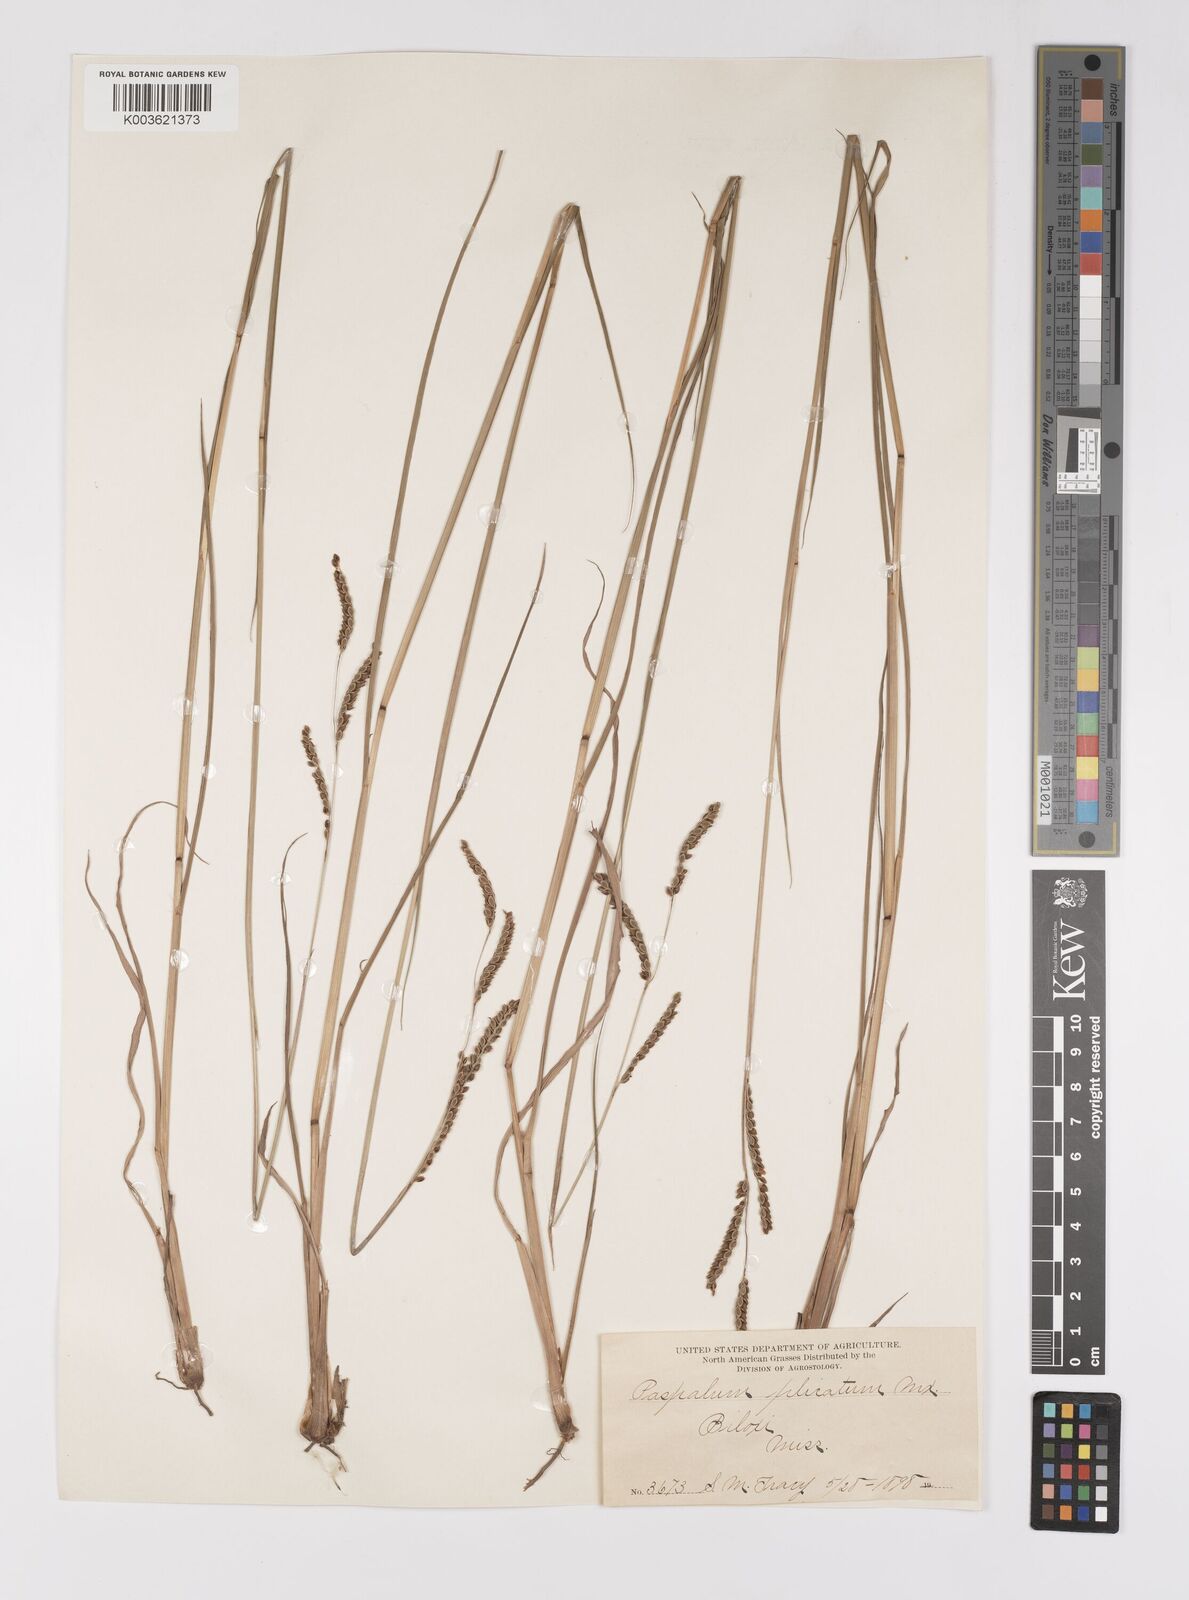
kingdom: Plantae
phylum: Tracheophyta
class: Liliopsida
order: Poales
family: Poaceae
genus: Paspalum
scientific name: Paspalum plicatulum
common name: Top paspalum
